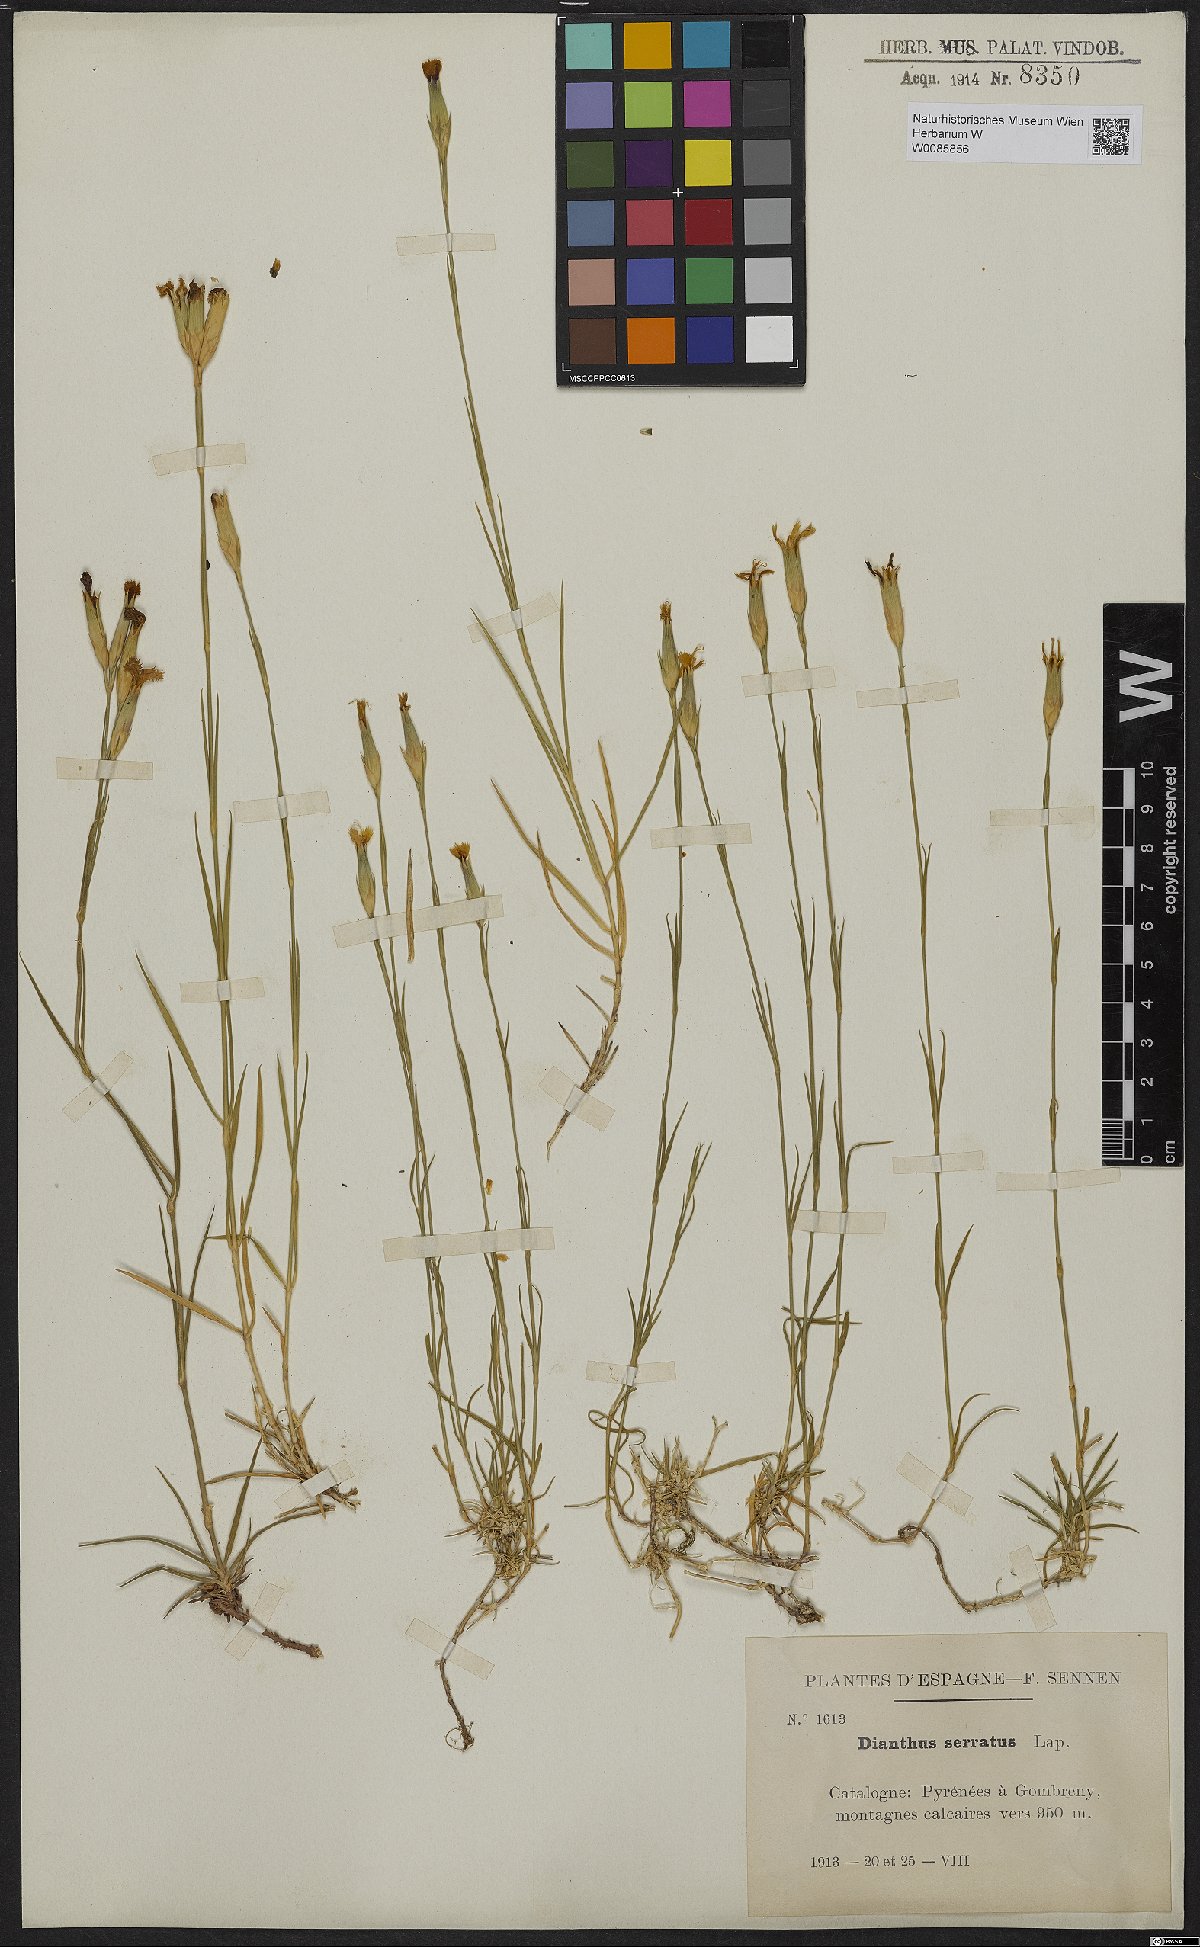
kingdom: Plantae
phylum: Tracheophyta
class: Magnoliopsida
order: Caryophyllales
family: Caryophyllaceae
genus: Dianthus
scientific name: Dianthus pungens
